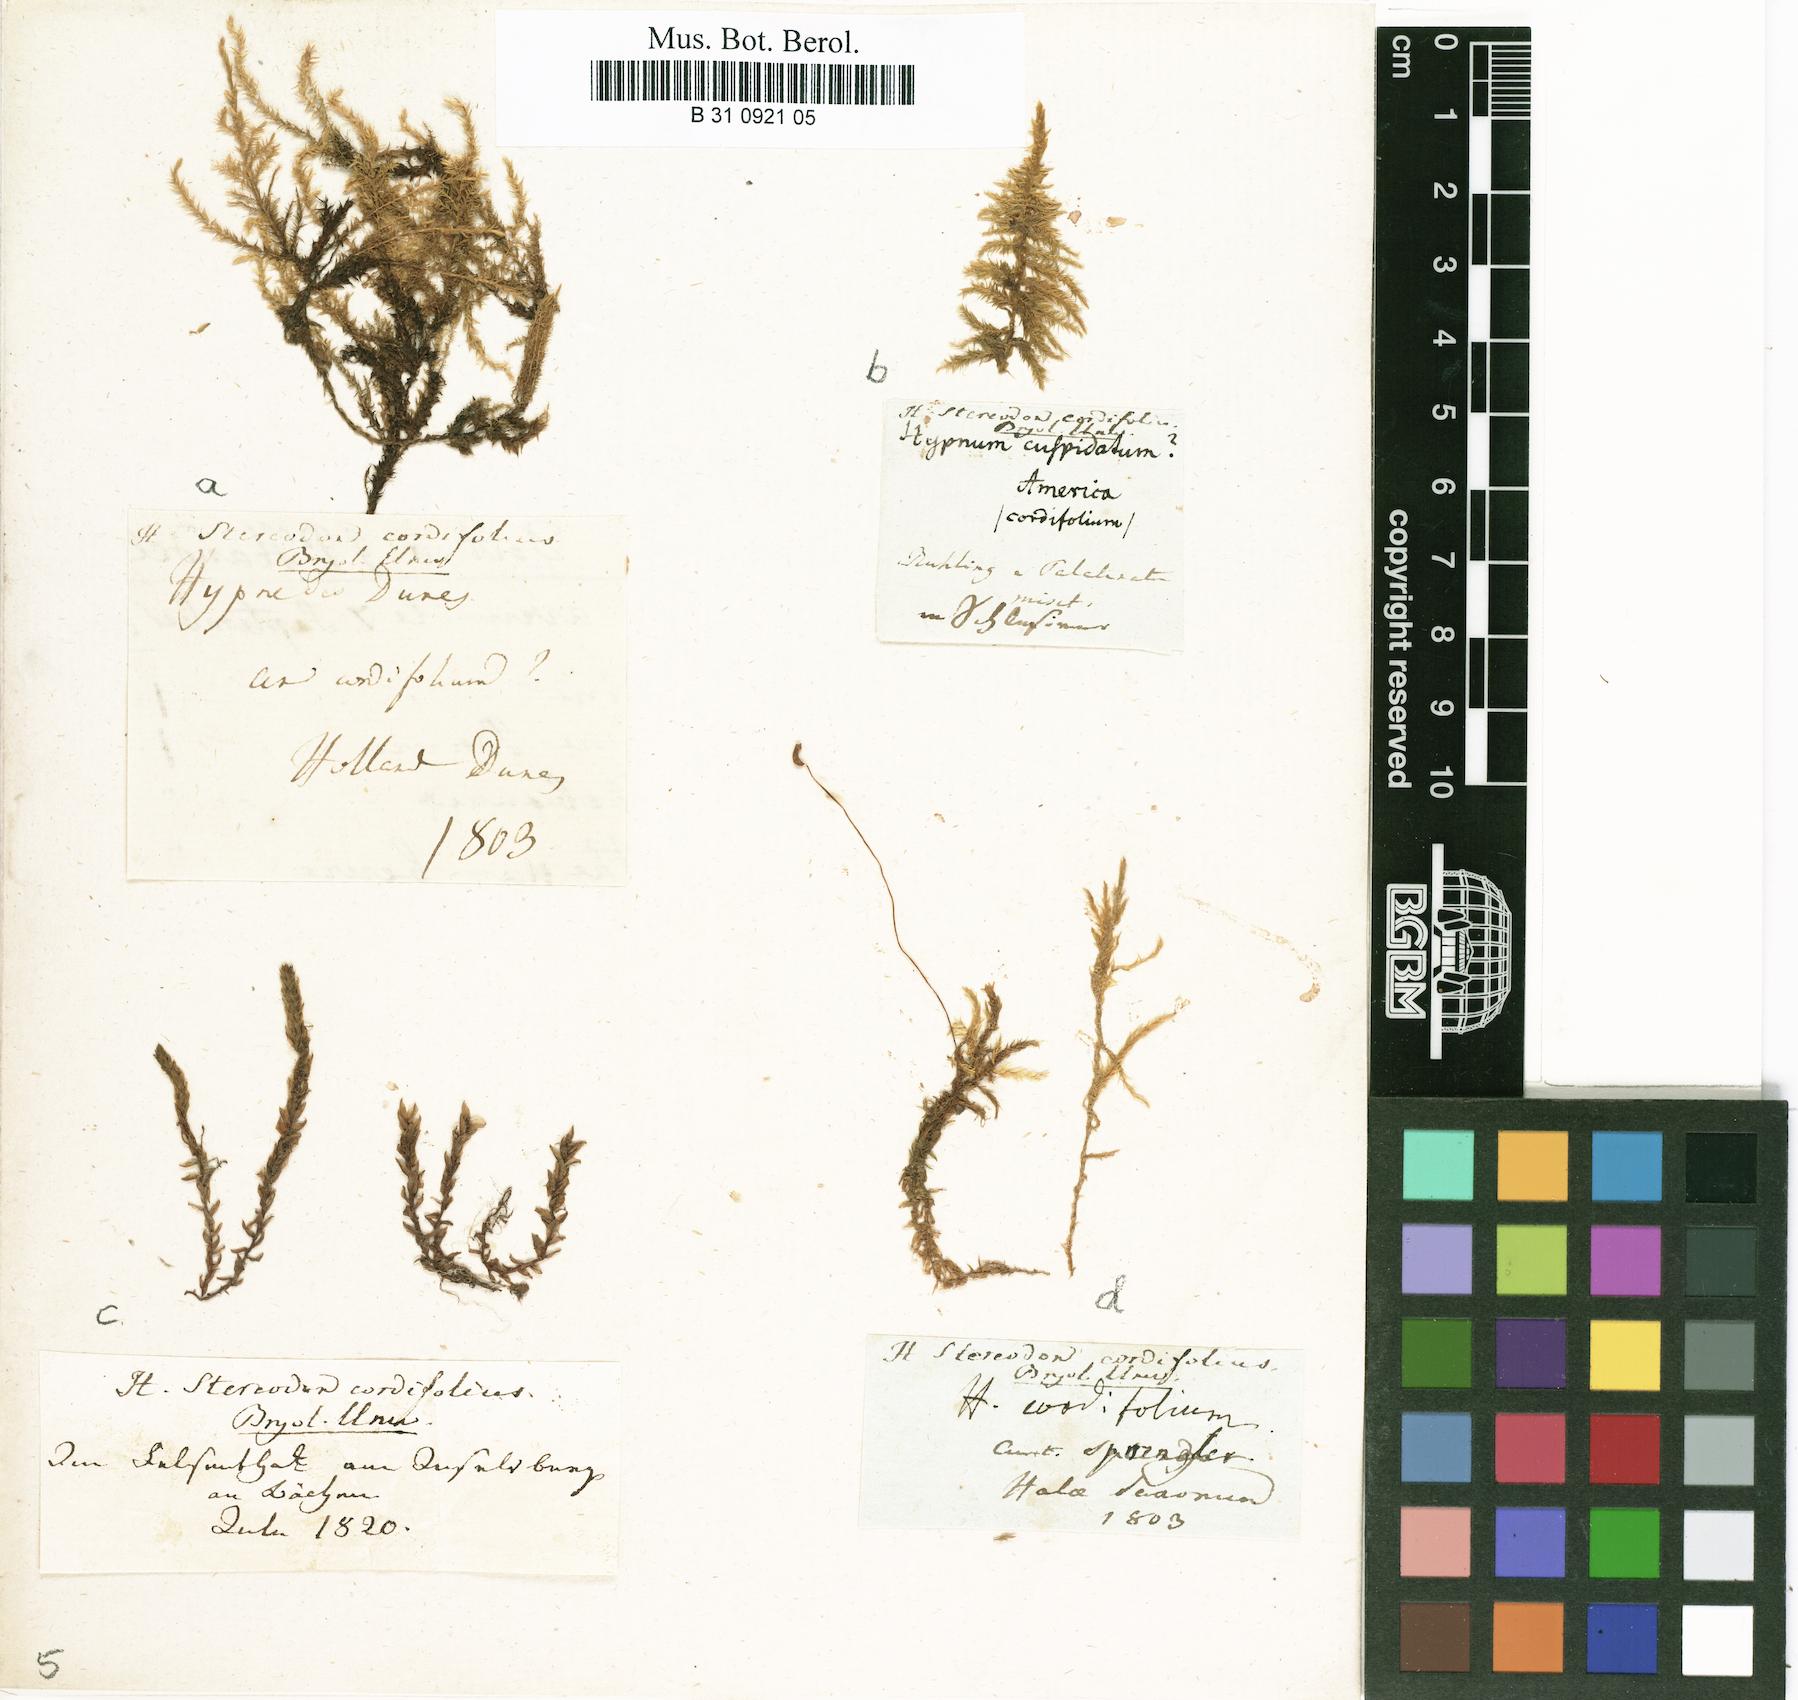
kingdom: Plantae
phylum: Bryophyta
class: Bryopsida
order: Hypnales
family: Calliergonaceae
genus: Calliergon
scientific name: Calliergon cordifolium
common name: Heart-leaved spear moss
